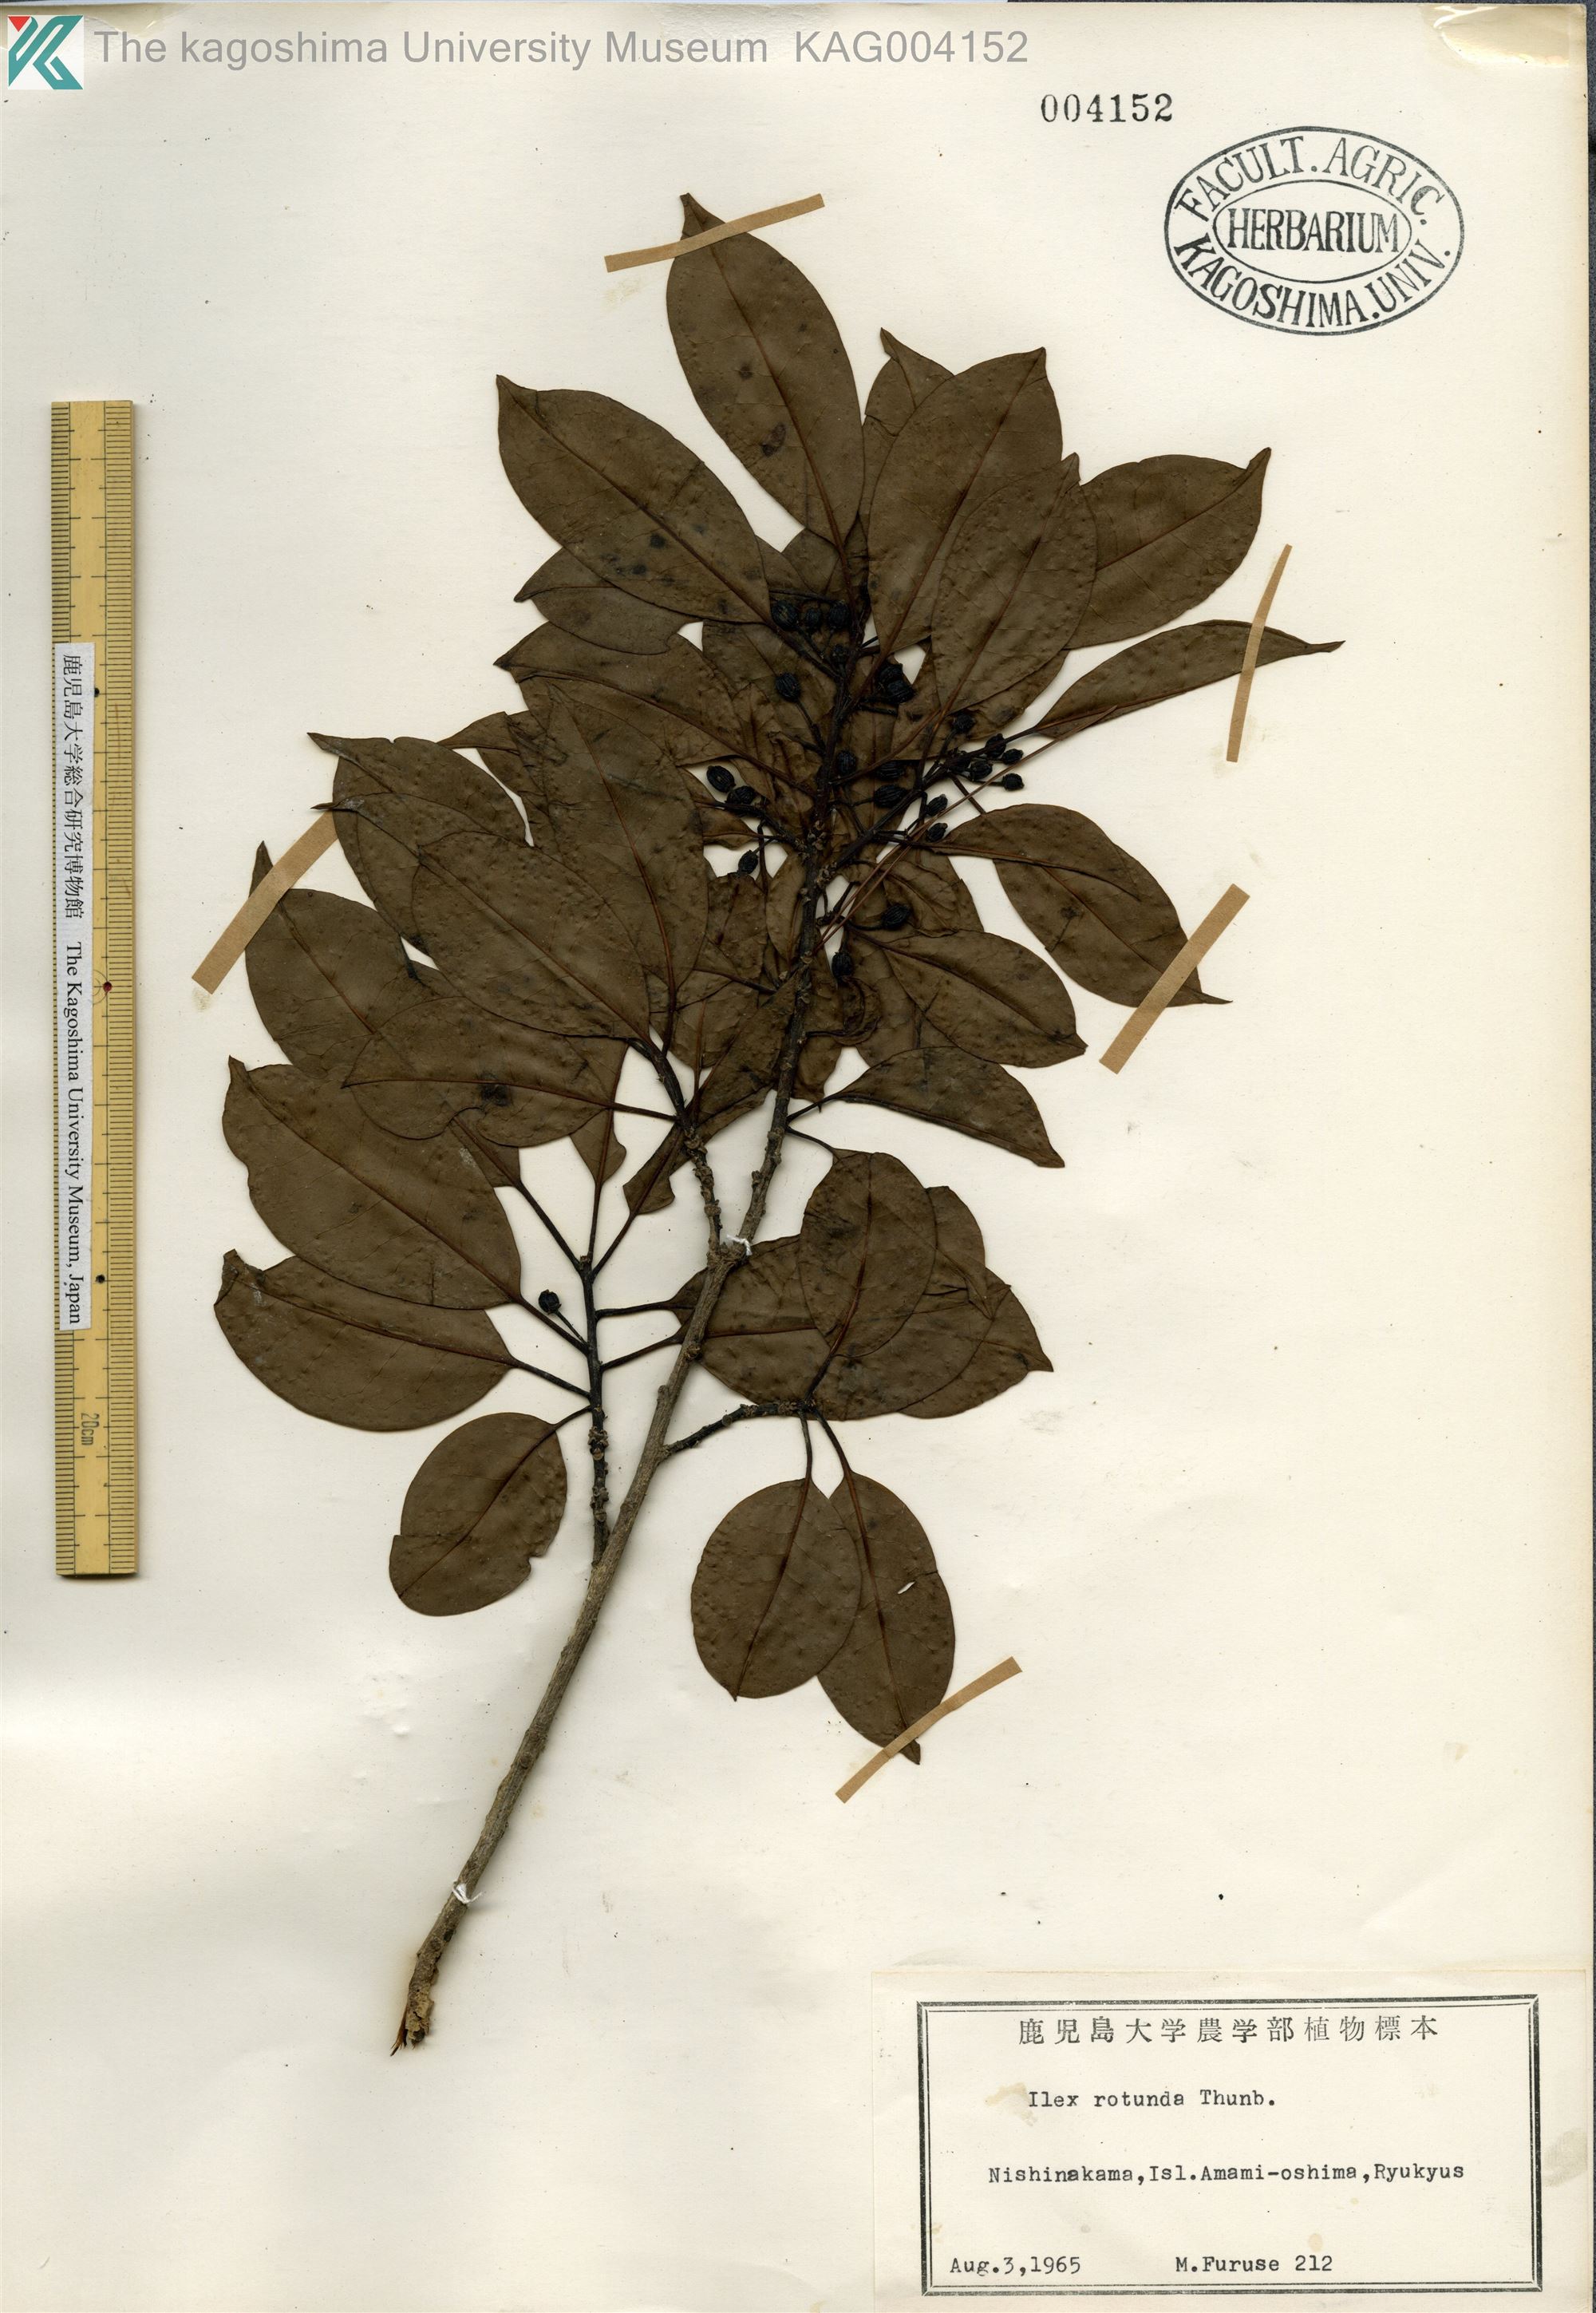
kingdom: Plantae
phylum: Tracheophyta
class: Magnoliopsida
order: Aquifoliales
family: Aquifoliaceae
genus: Ilex
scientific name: Ilex rotunda
